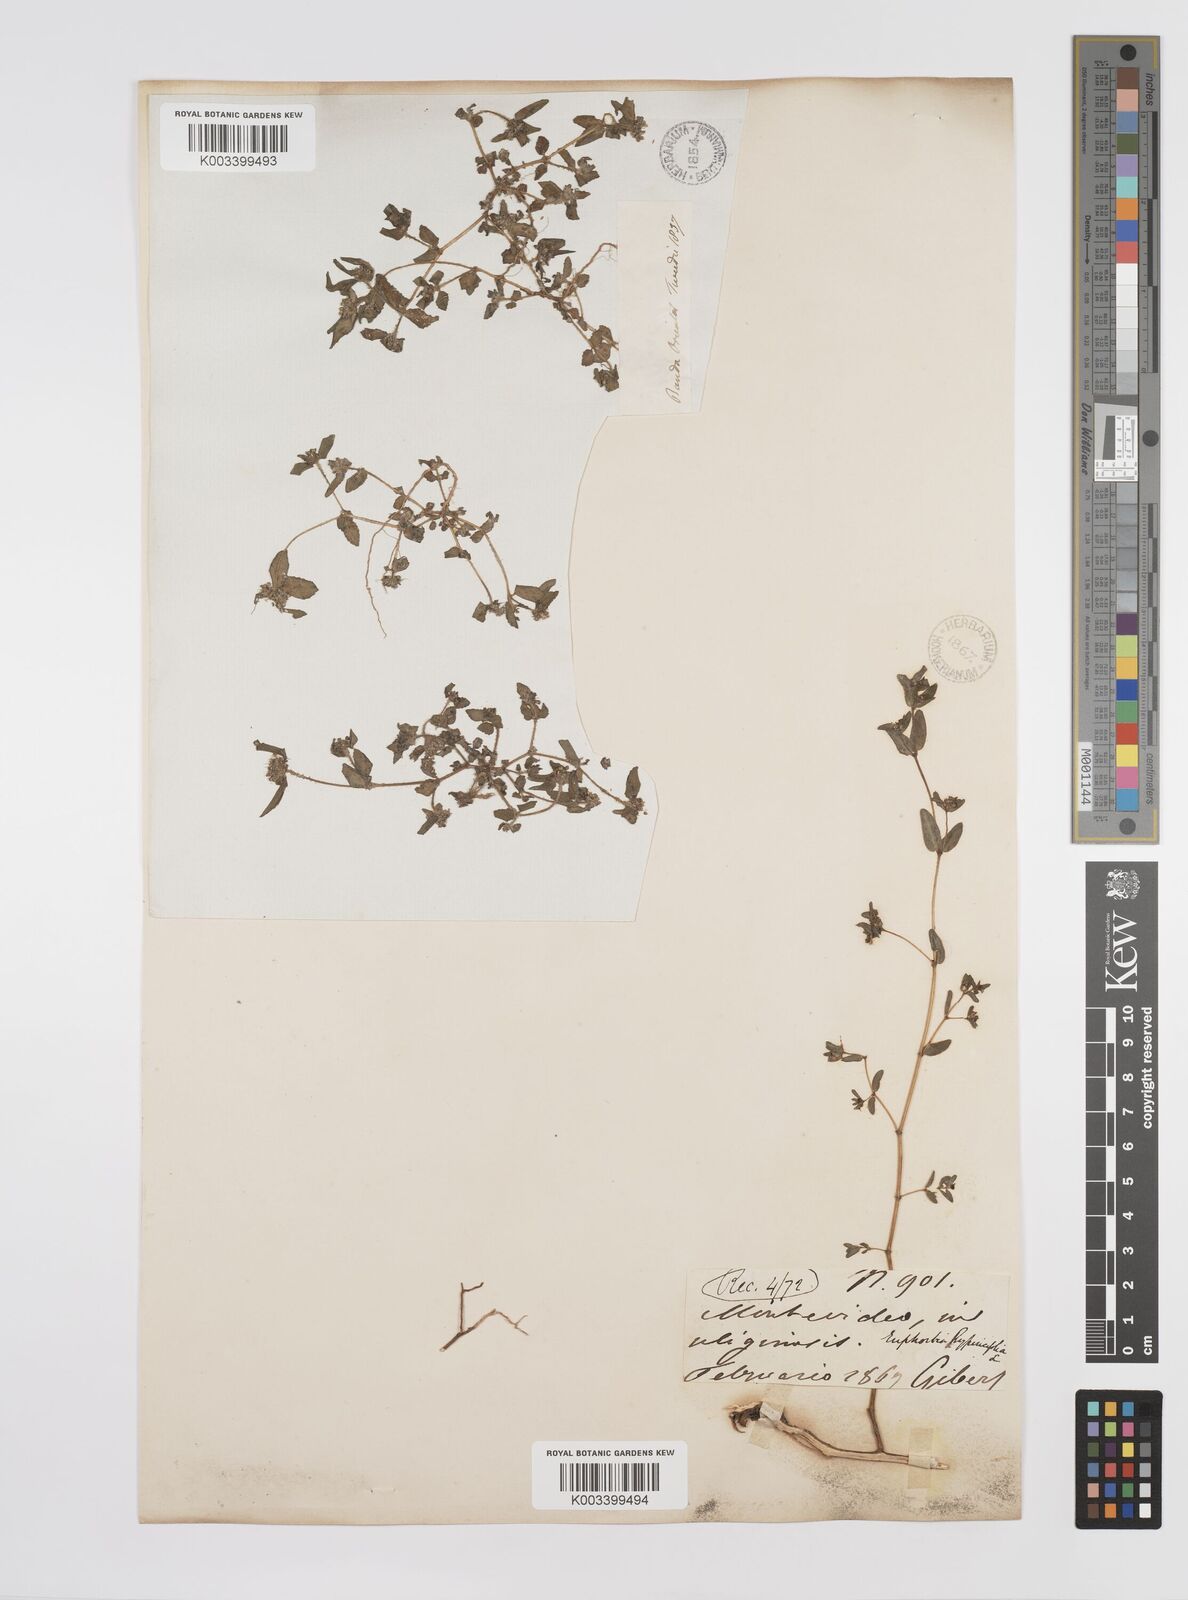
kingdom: Plantae
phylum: Tracheophyta
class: Magnoliopsida
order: Malpighiales
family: Euphorbiaceae
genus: Euphorbia
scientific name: Euphorbia hirta
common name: Pillpod sandmat
